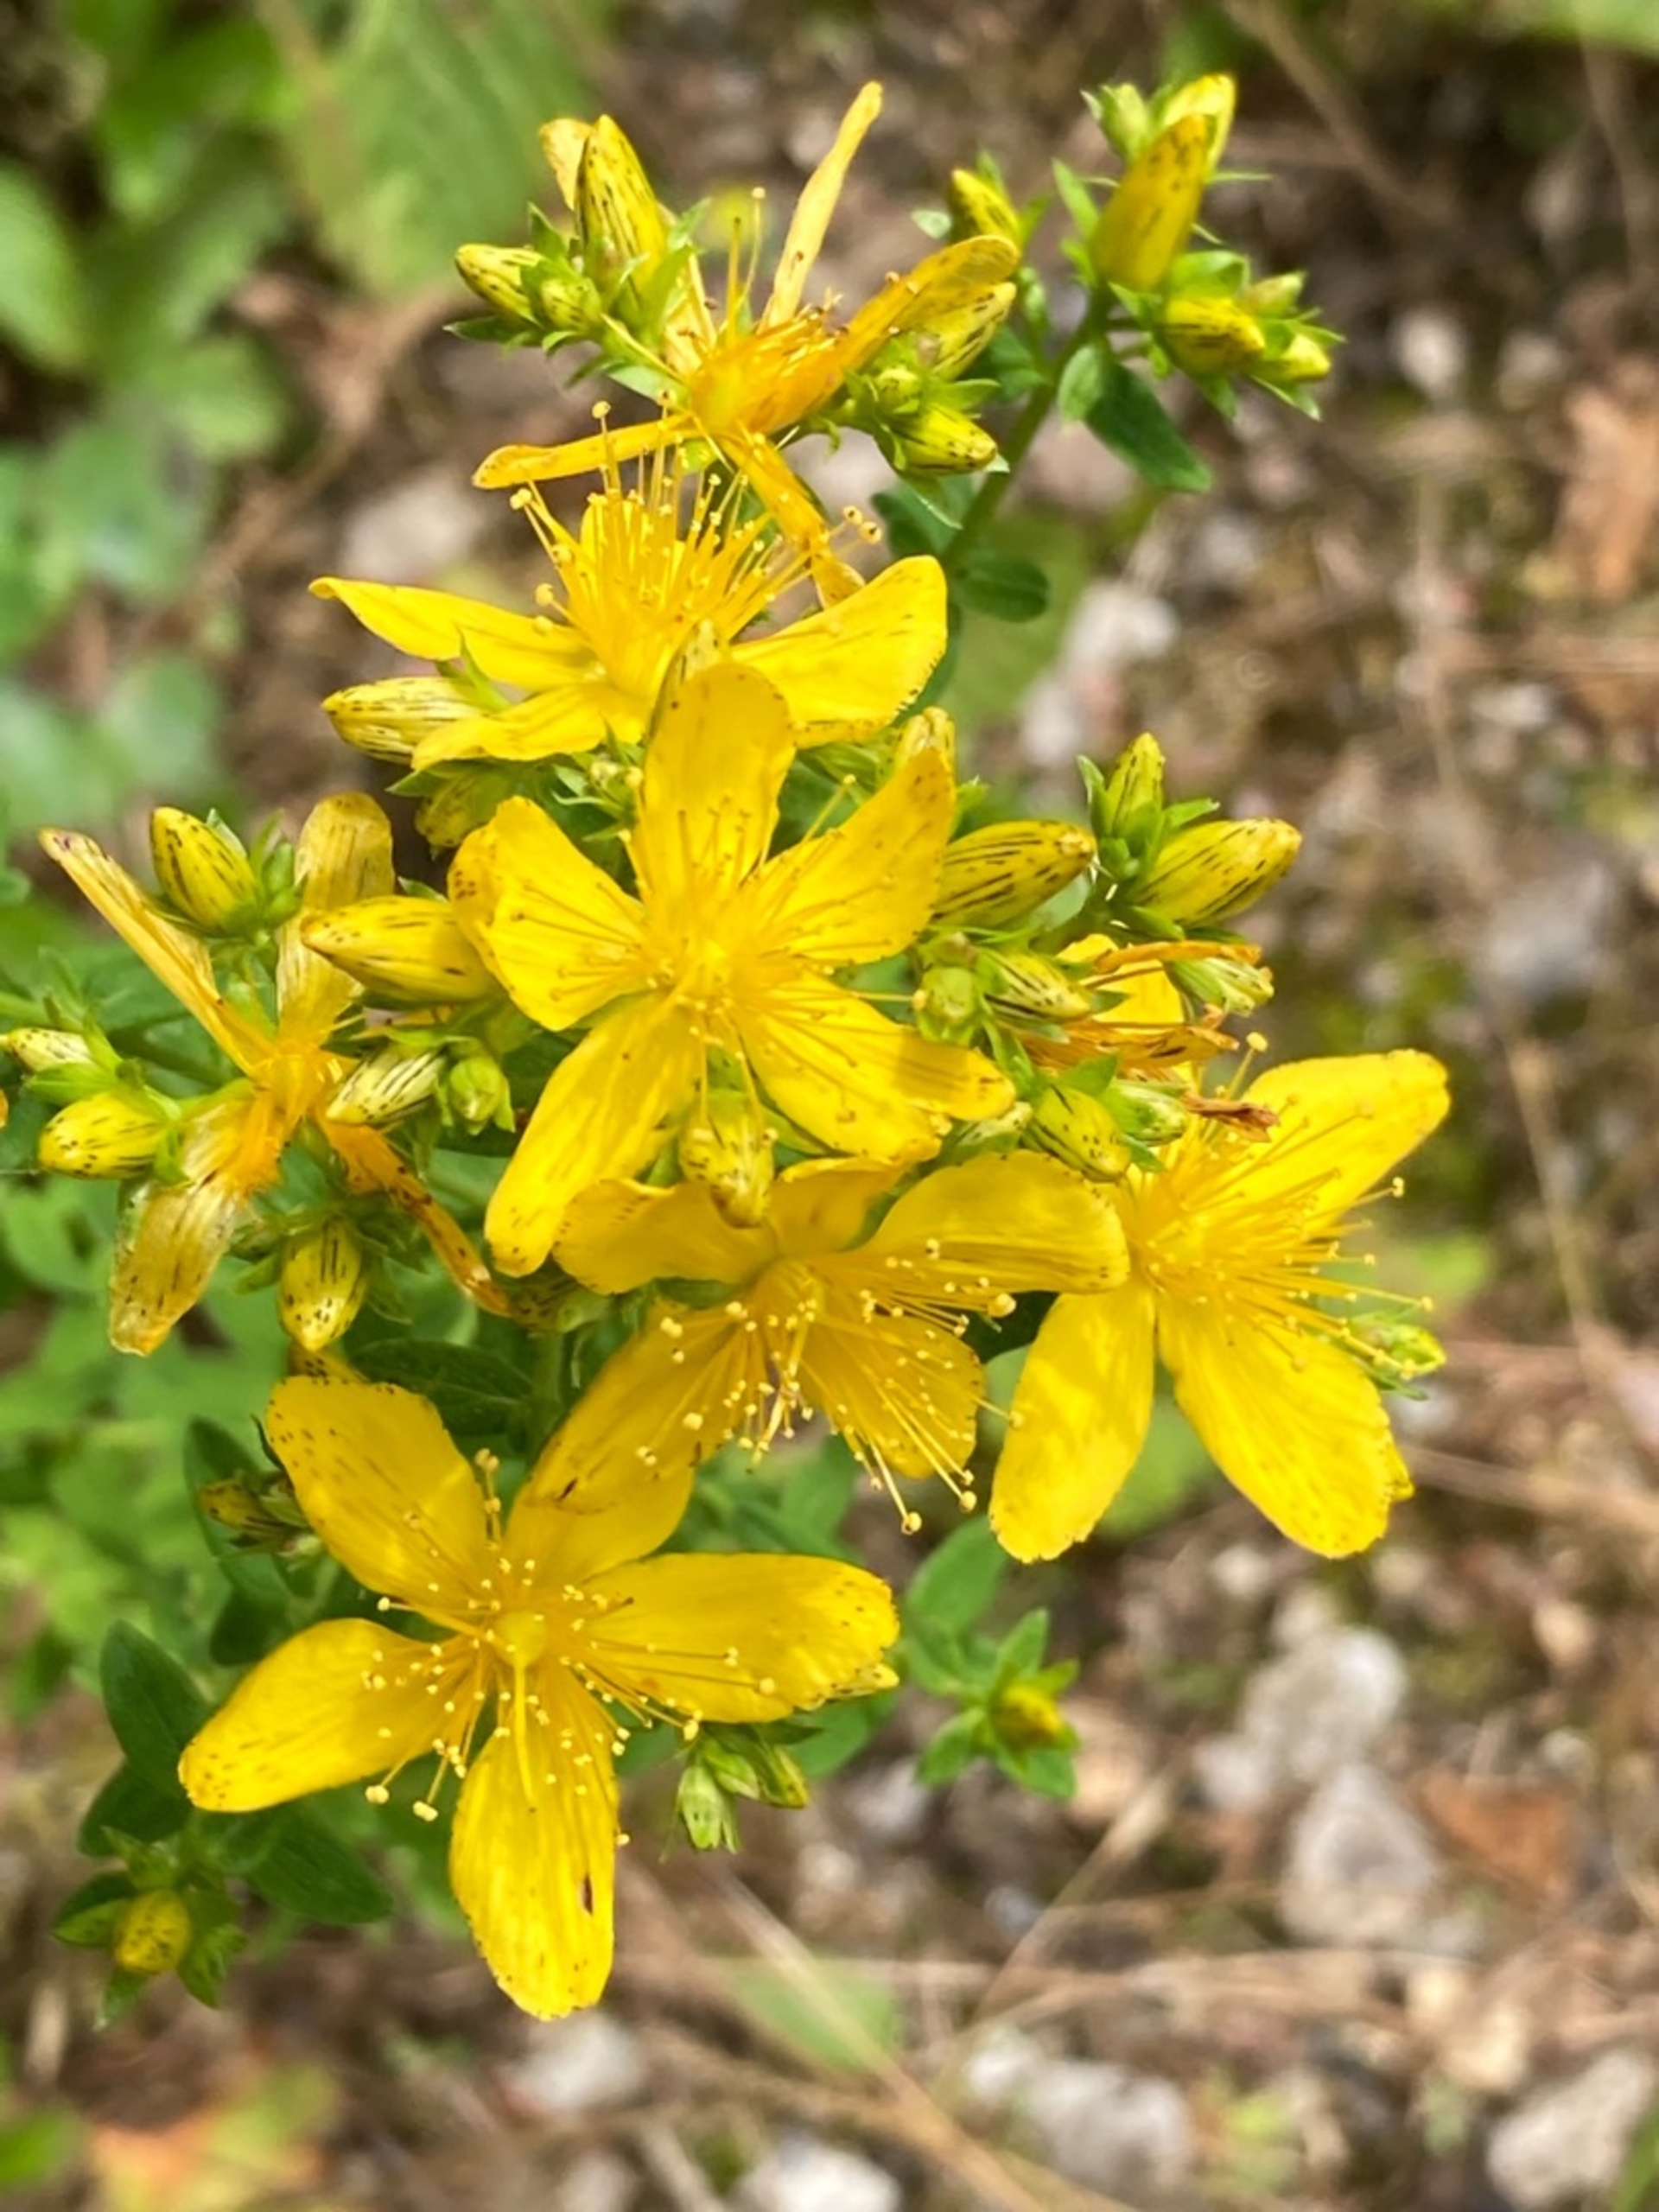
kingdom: Plantae
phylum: Tracheophyta
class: Magnoliopsida
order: Malpighiales
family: Hypericaceae
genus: Hypericum
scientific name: Hypericum perforatum
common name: Prikbladet perikon
